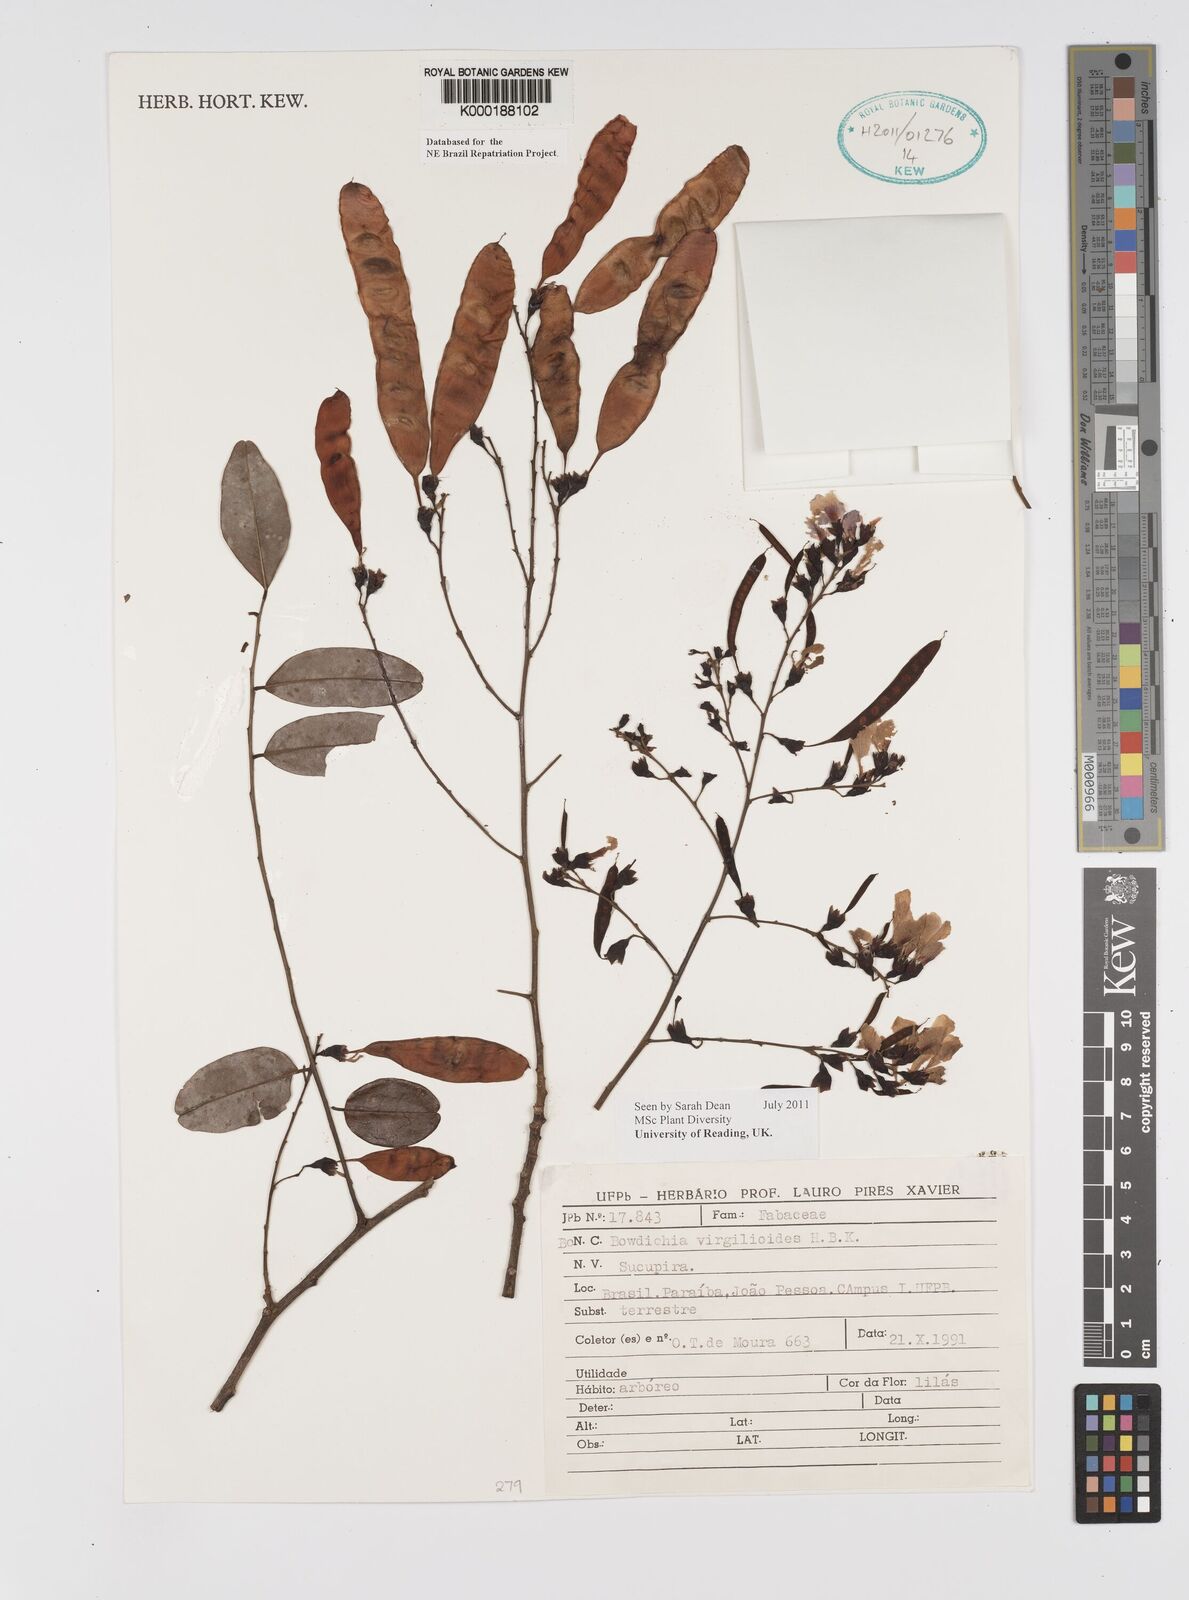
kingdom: Plantae
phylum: Tracheophyta
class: Magnoliopsida
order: Fabales
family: Fabaceae
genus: Bowdichia
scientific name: Bowdichia virgilioides
